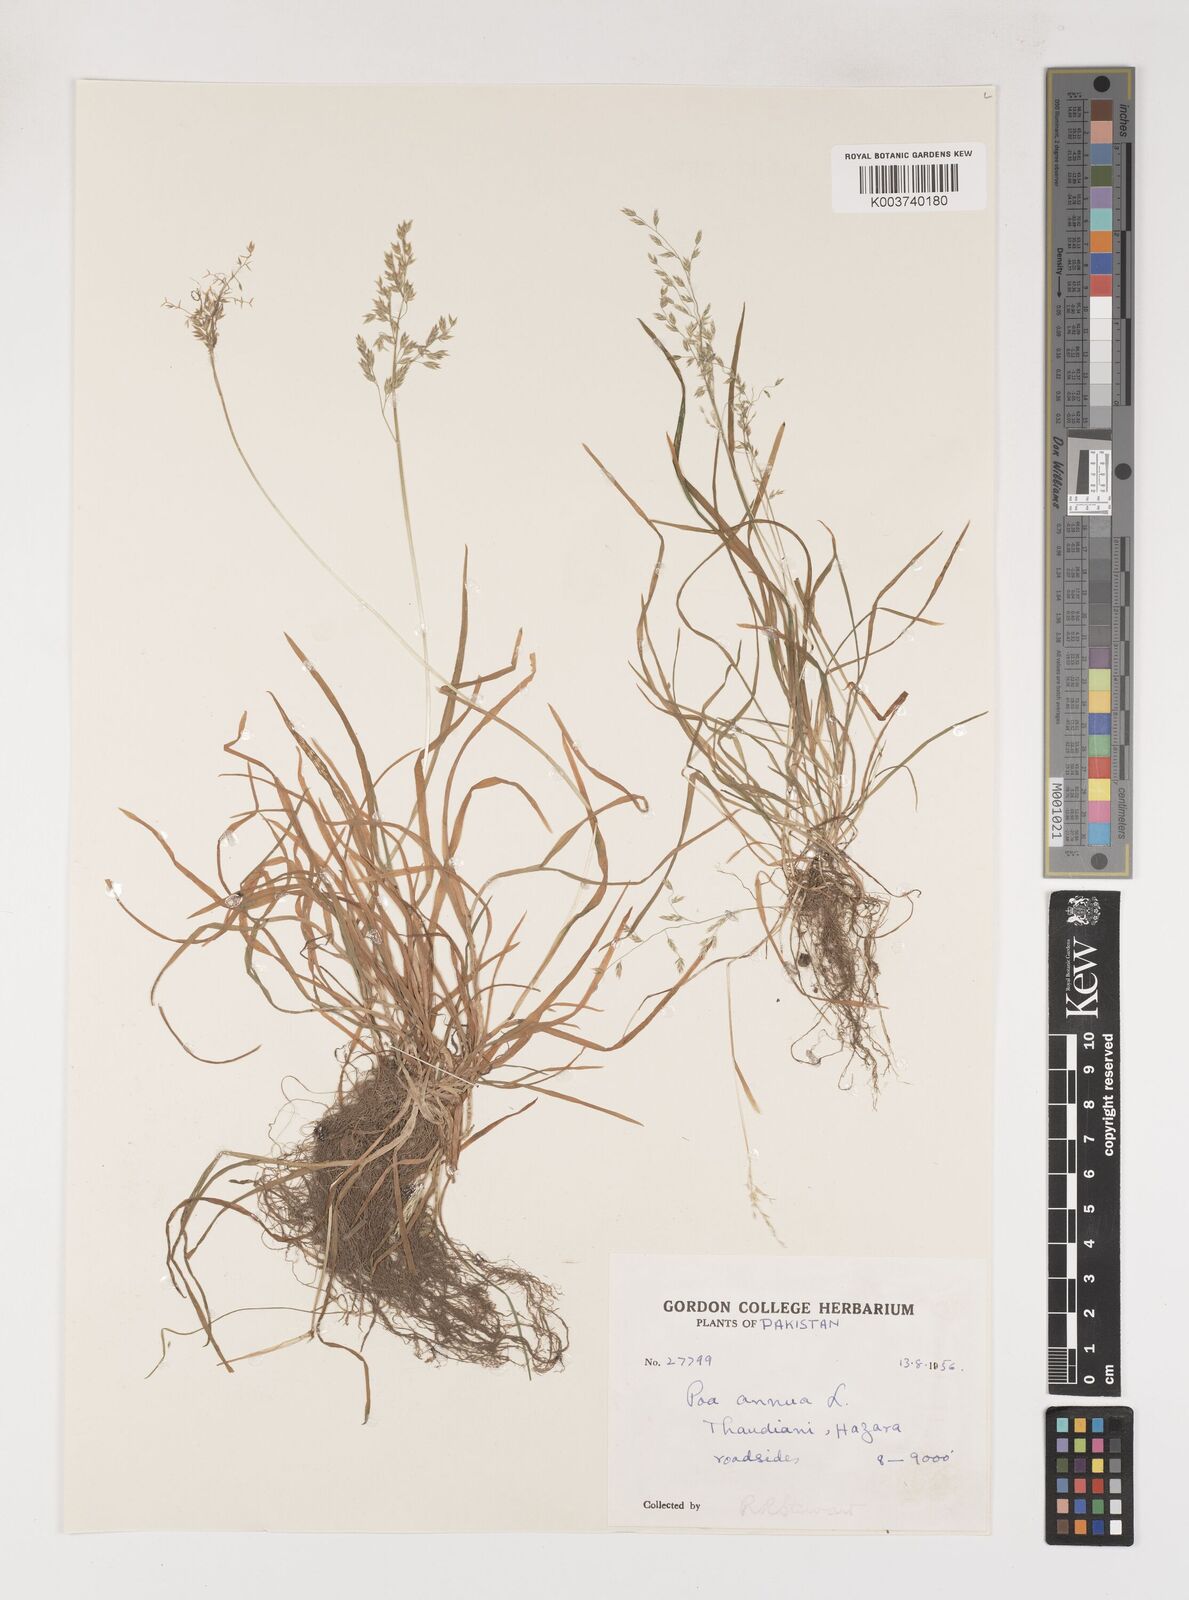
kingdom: Plantae
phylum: Tracheophyta
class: Liliopsida
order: Poales
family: Poaceae
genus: Poa
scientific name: Poa annua
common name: Annual bluegrass
